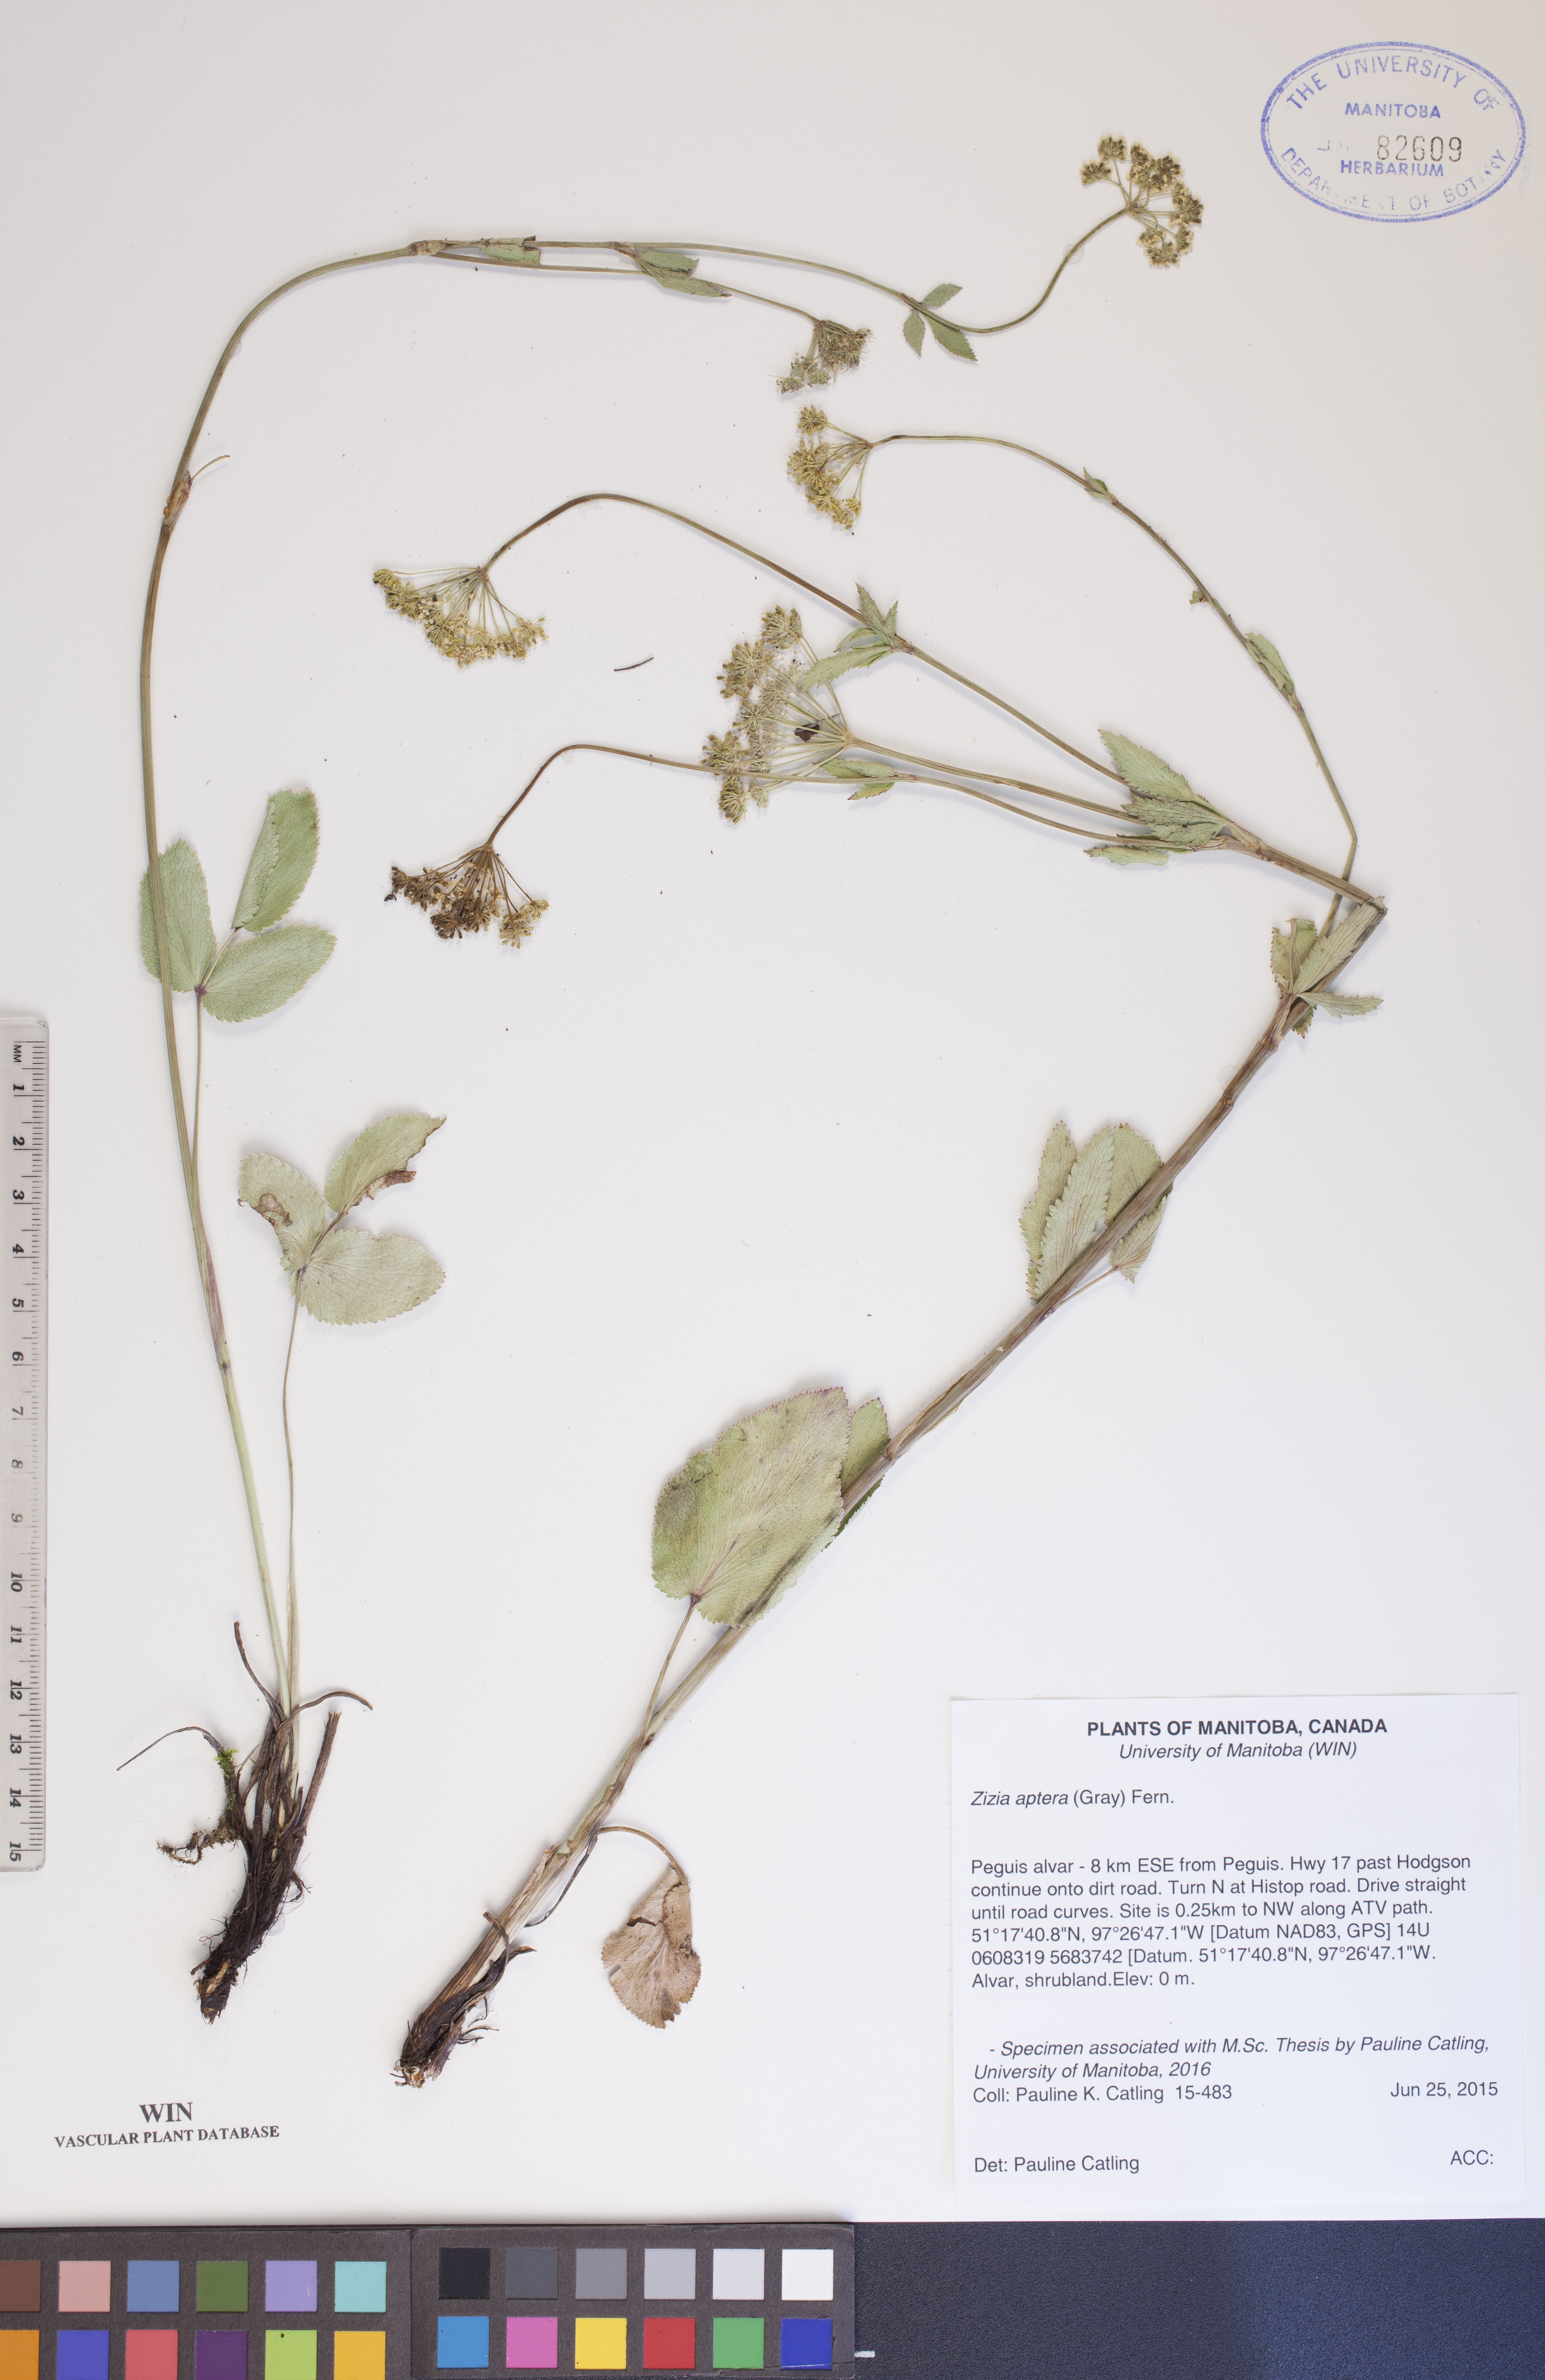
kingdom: Plantae
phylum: Tracheophyta
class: Magnoliopsida
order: Apiales
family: Apiaceae
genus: Zizia
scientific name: Zizia aptera
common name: Heart-leaved alexanders
